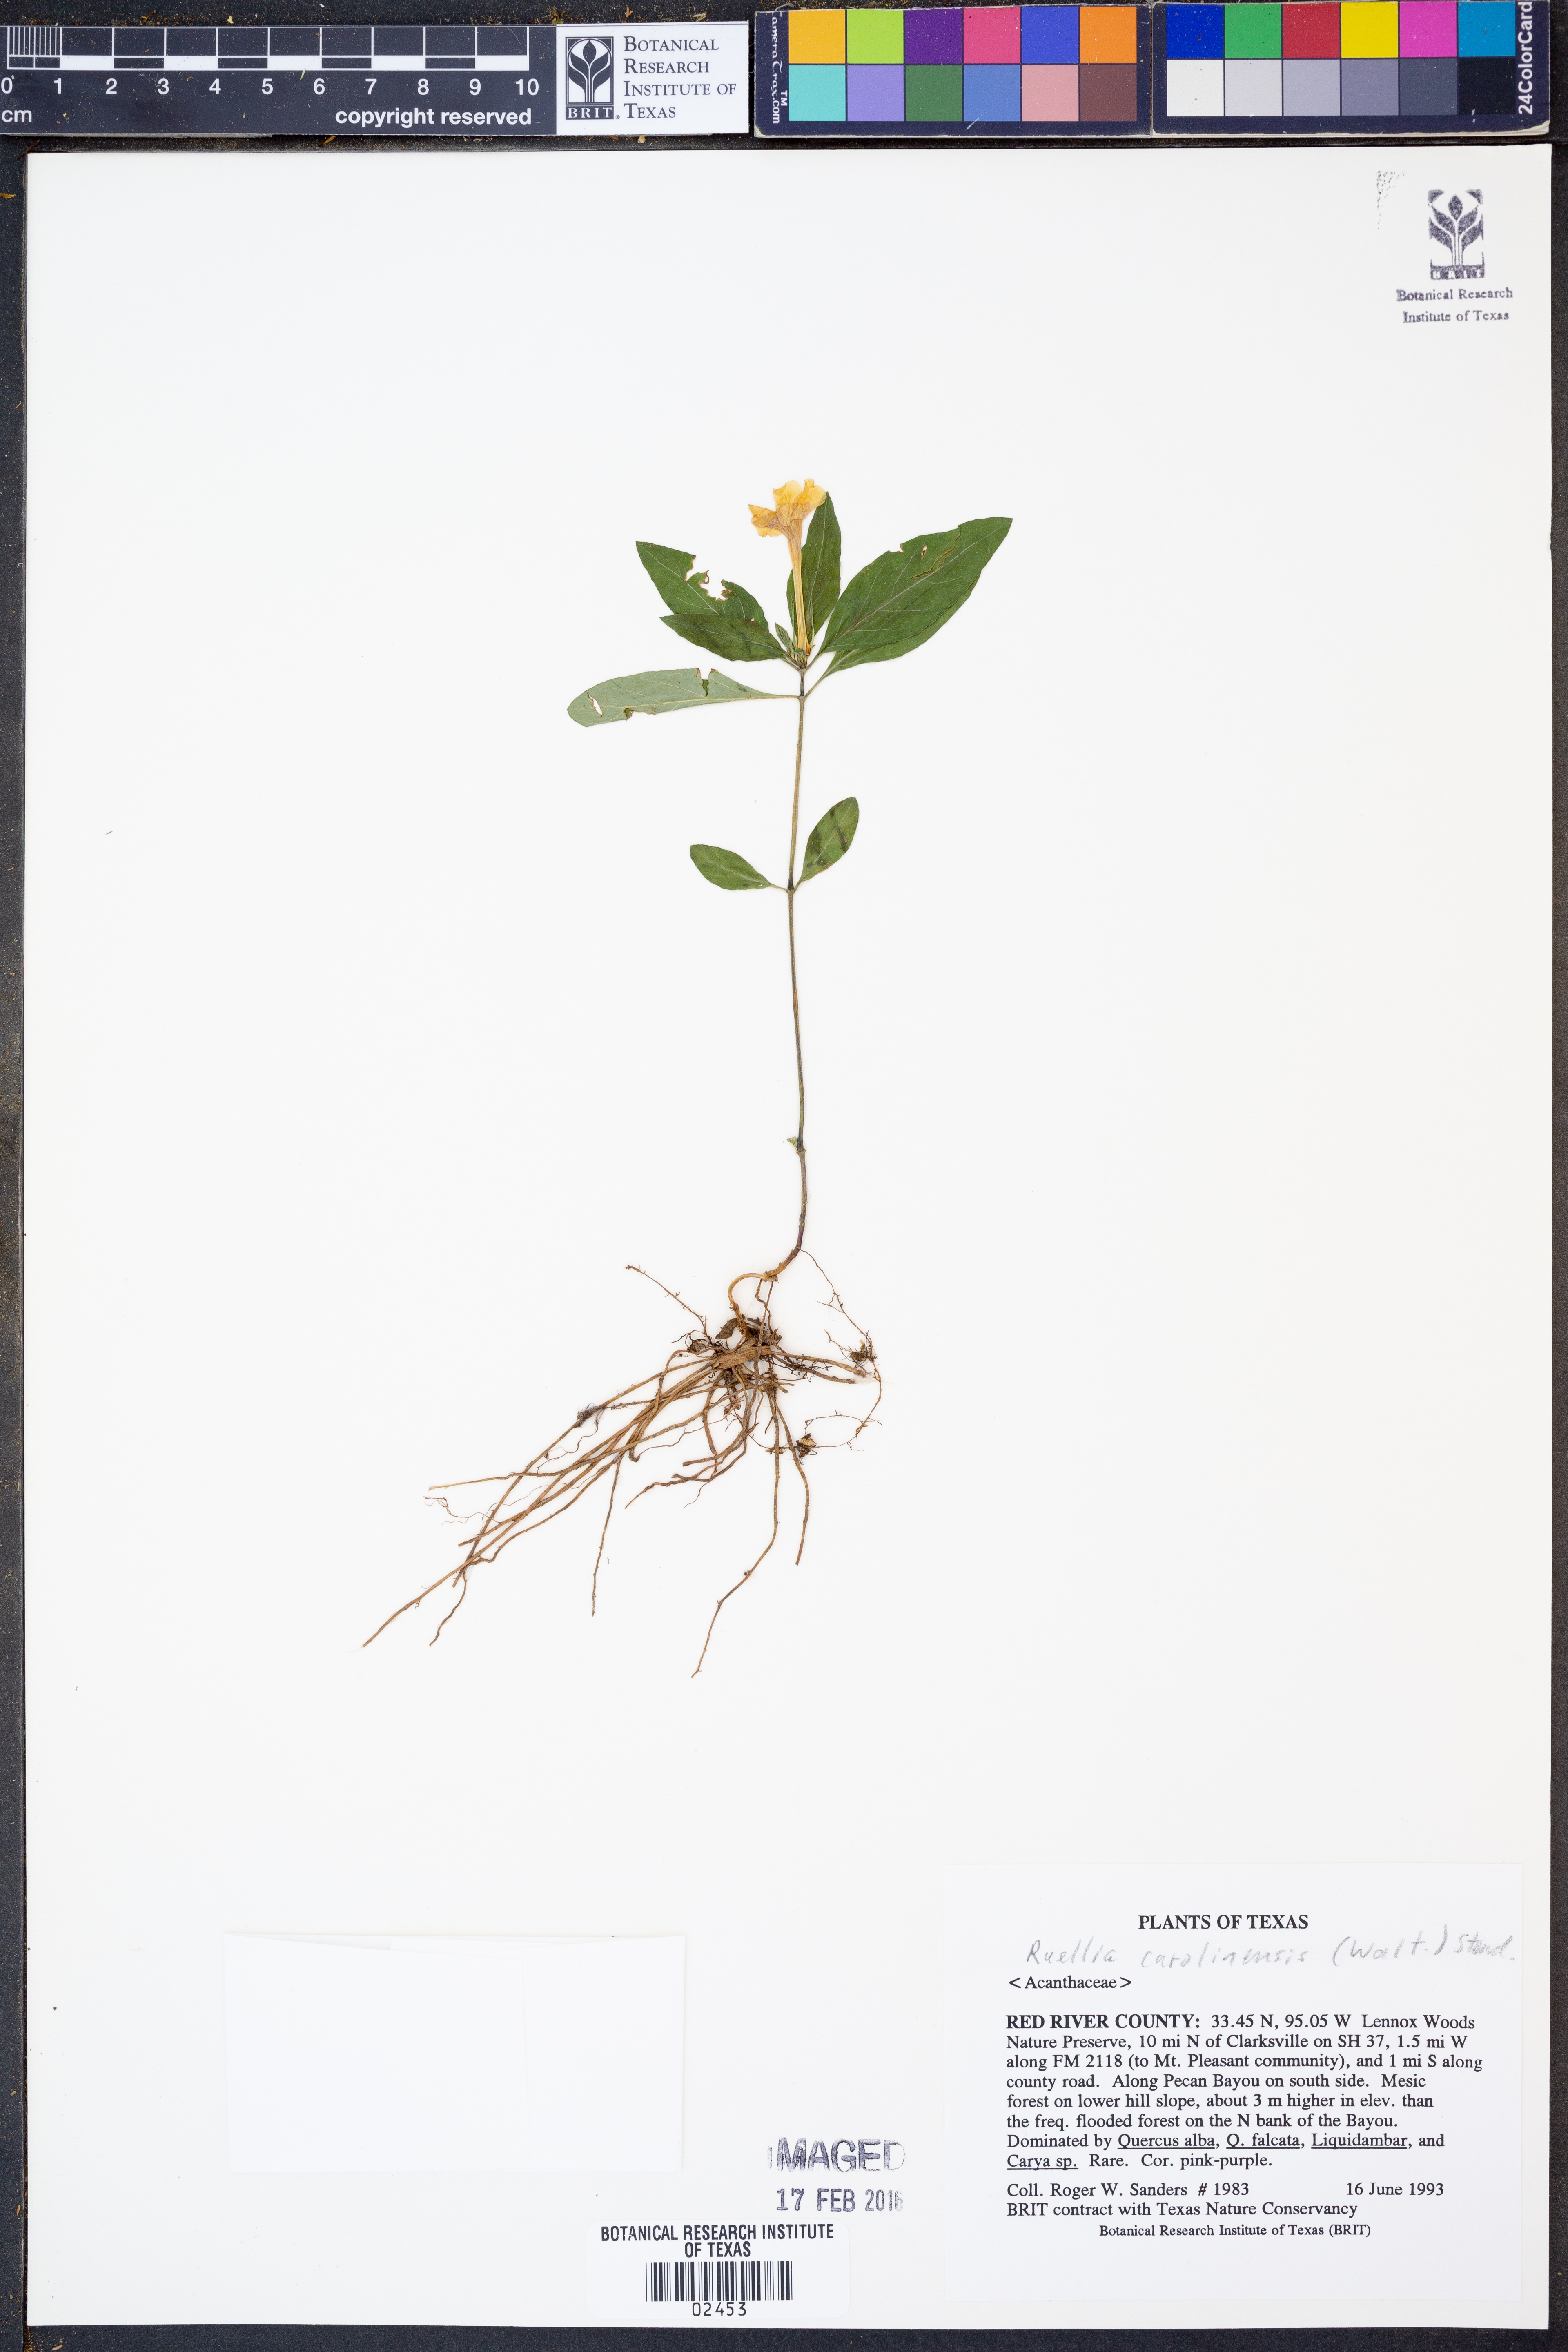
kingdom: Plantae
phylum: Tracheophyta
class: Magnoliopsida
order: Lamiales
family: Acanthaceae
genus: Ruellia
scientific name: Ruellia caroliniensis
